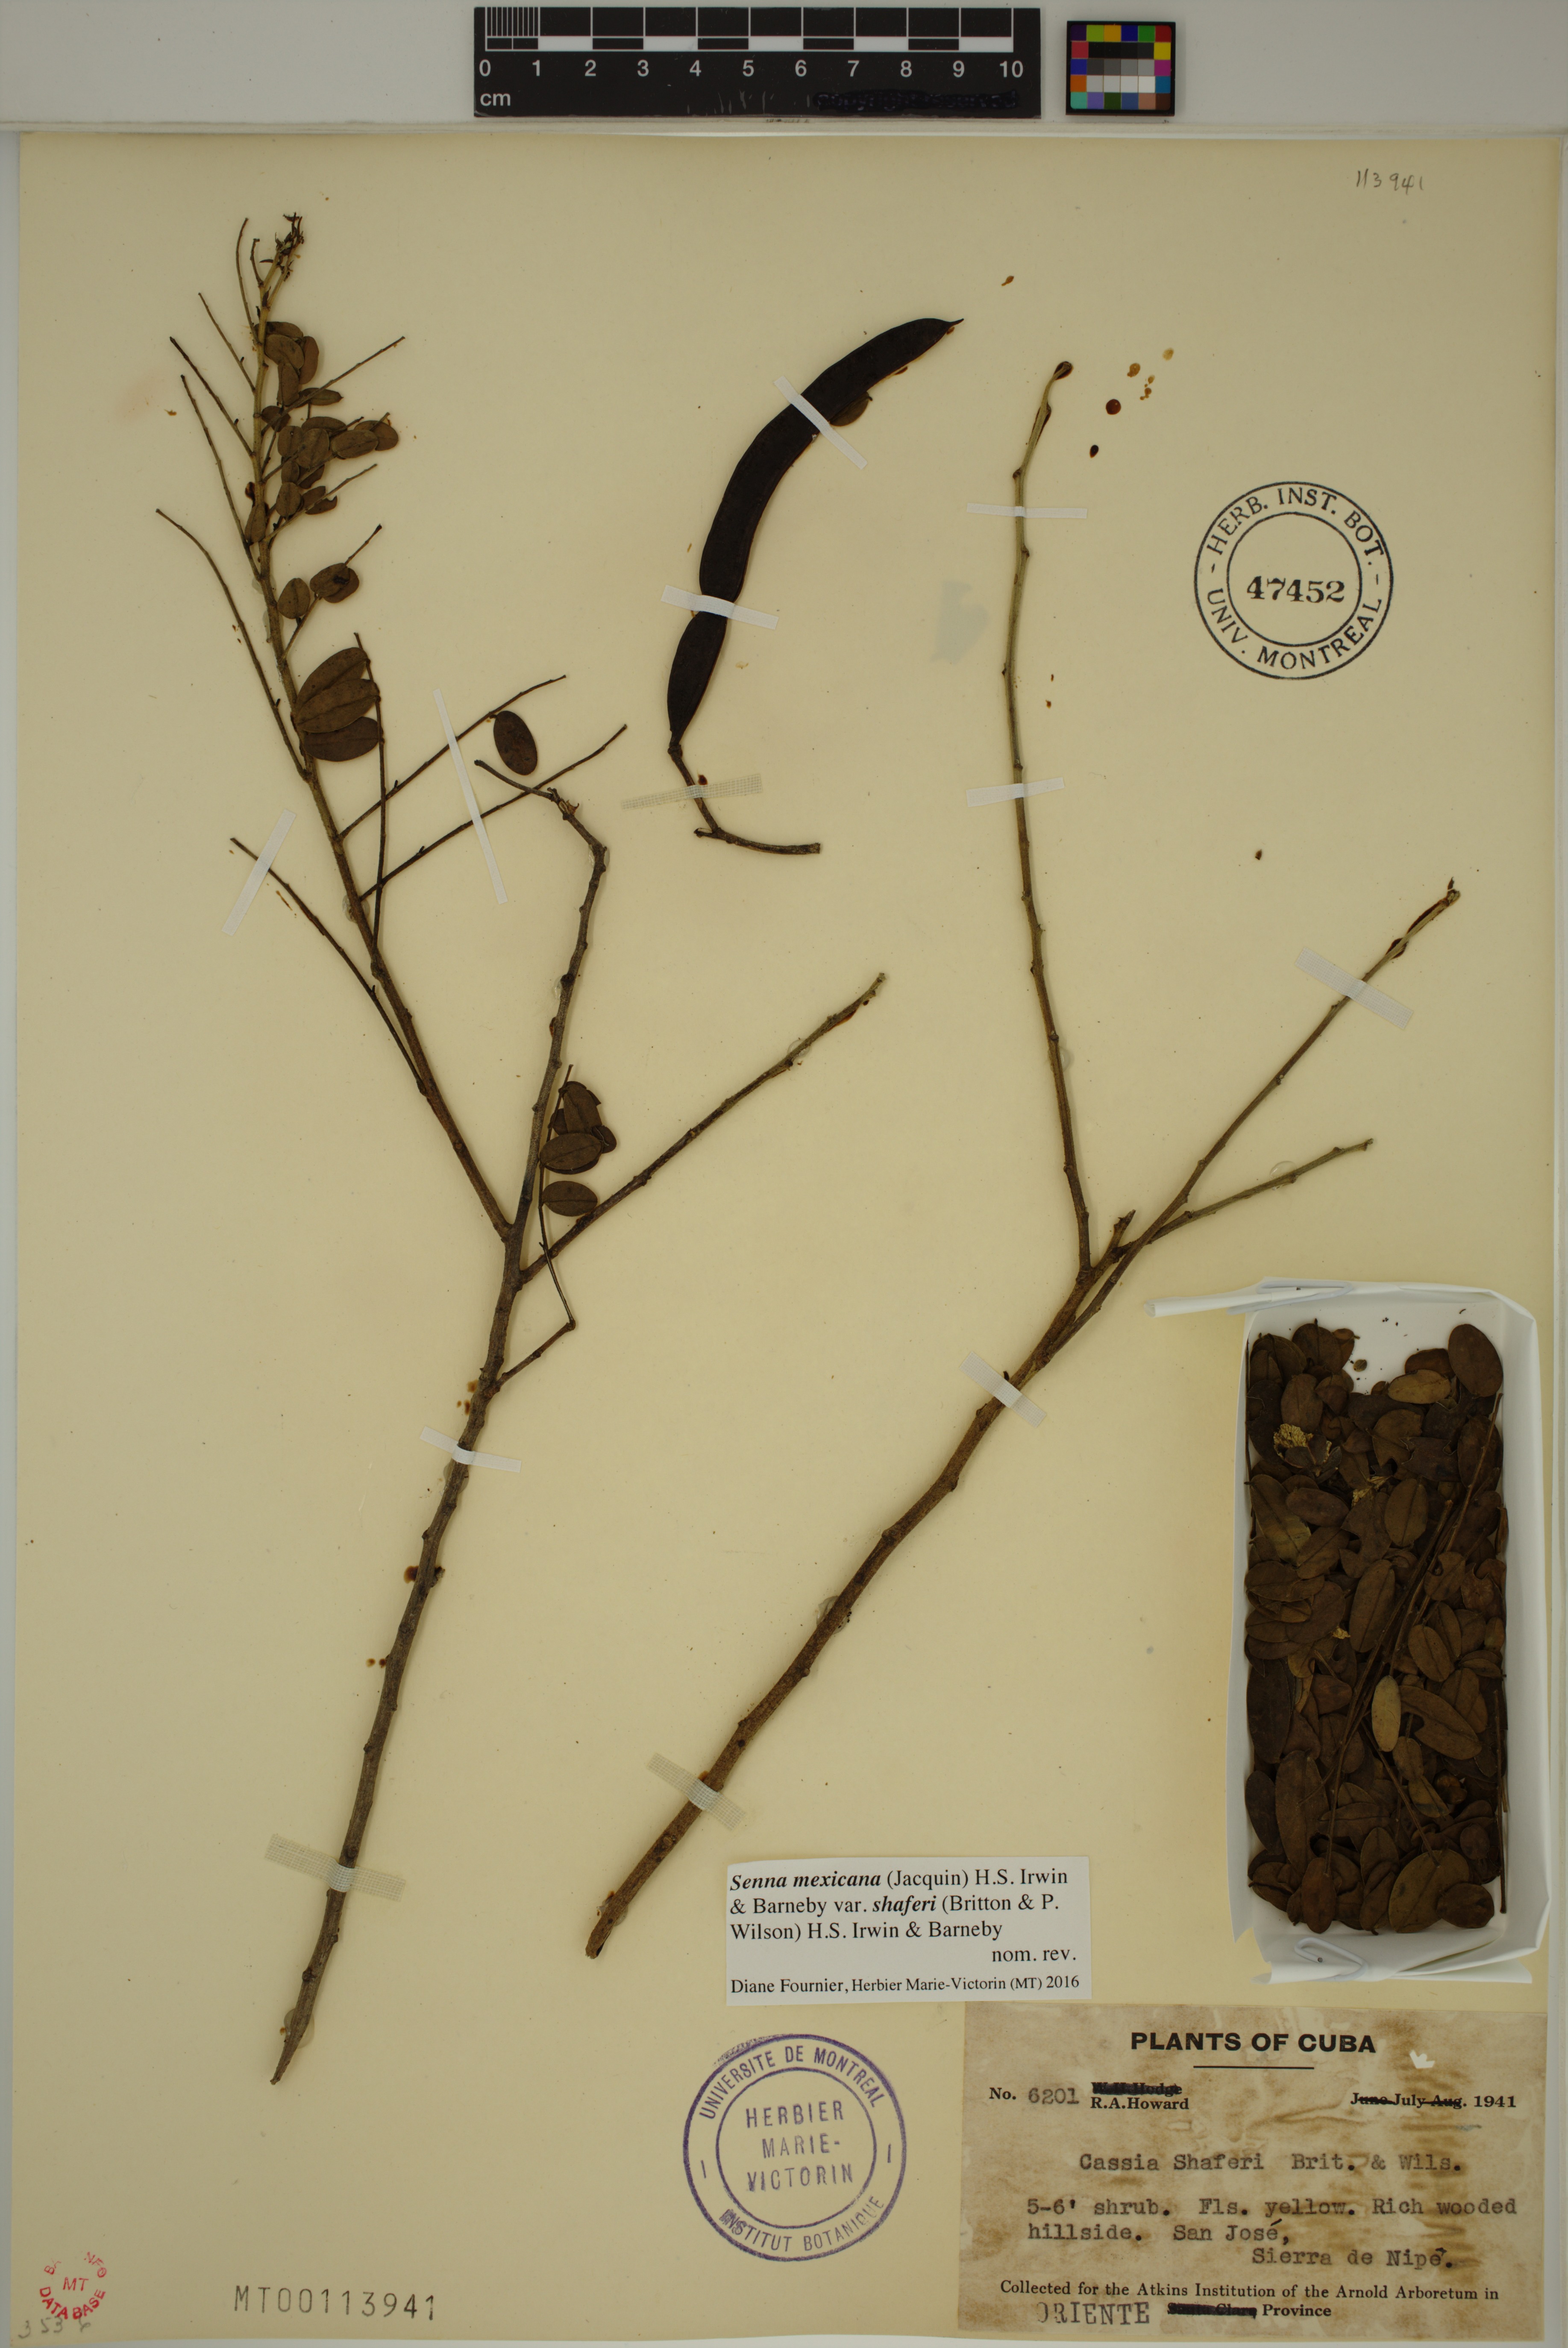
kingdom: Plantae
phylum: Tracheophyta
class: Magnoliopsida
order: Fabales
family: Fabaceae
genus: Senna
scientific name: Senna mexicana
